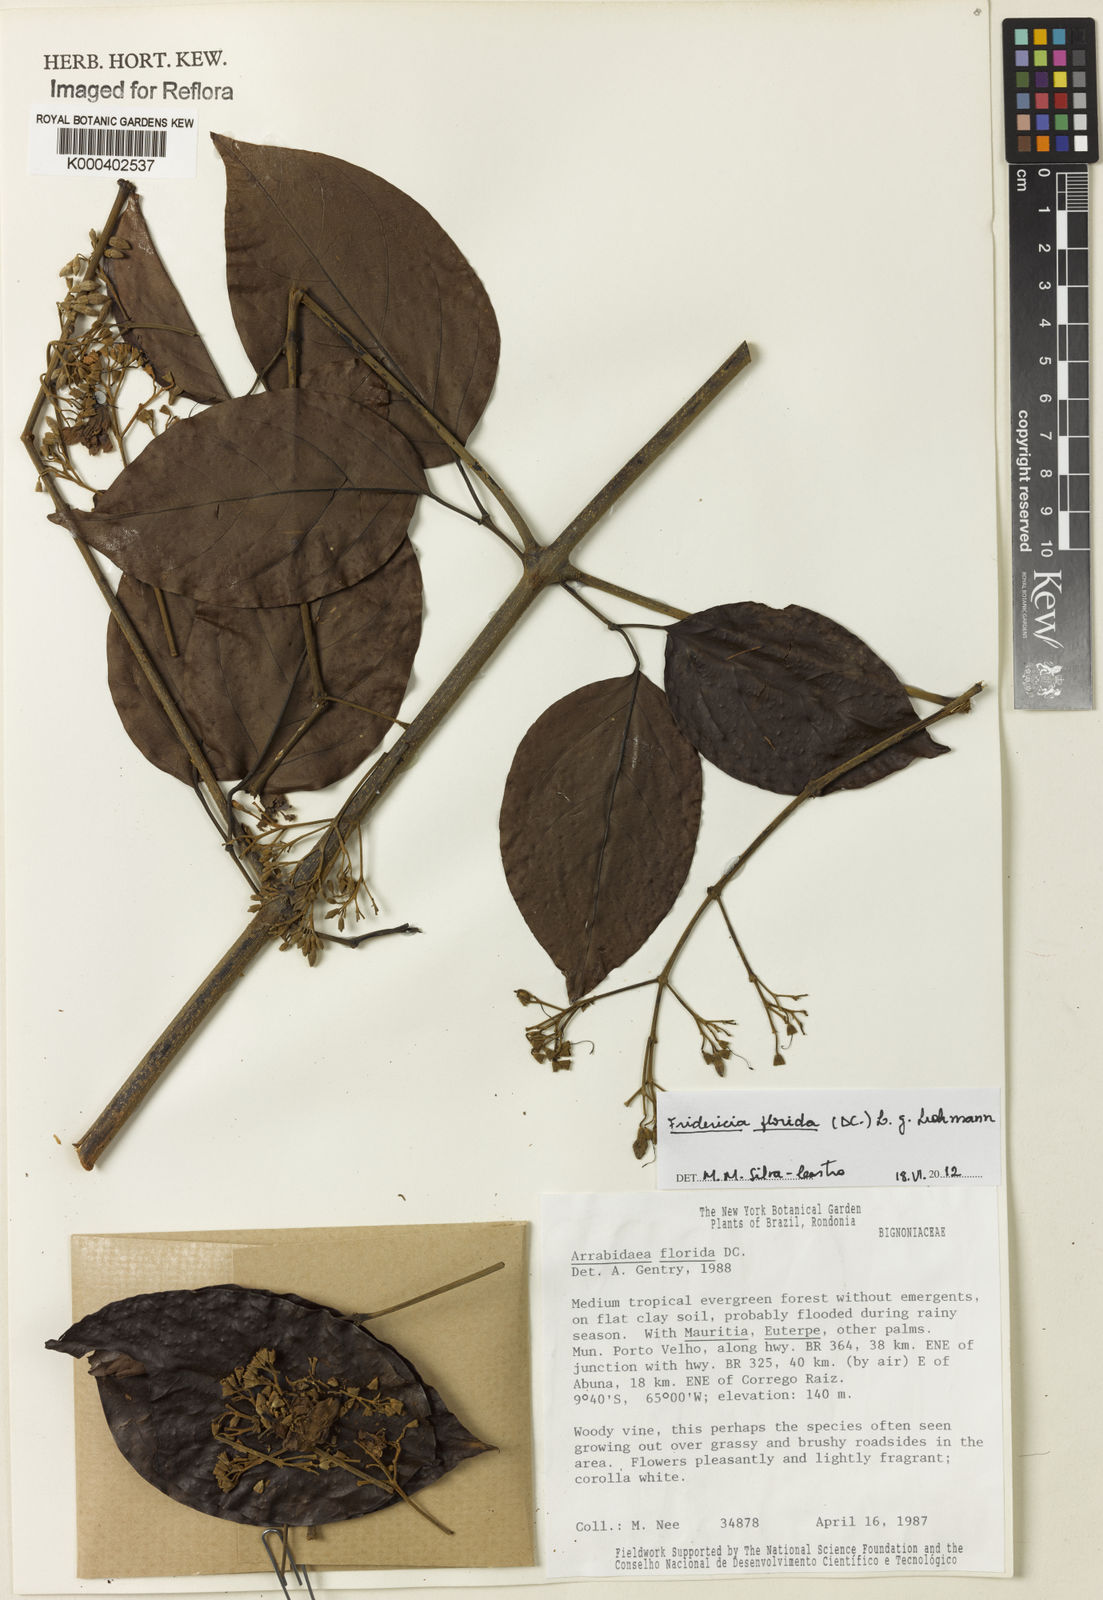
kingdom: Plantae
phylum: Tracheophyta
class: Magnoliopsida
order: Lamiales
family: Bignoniaceae
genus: Fridericia
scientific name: Fridericia florida
